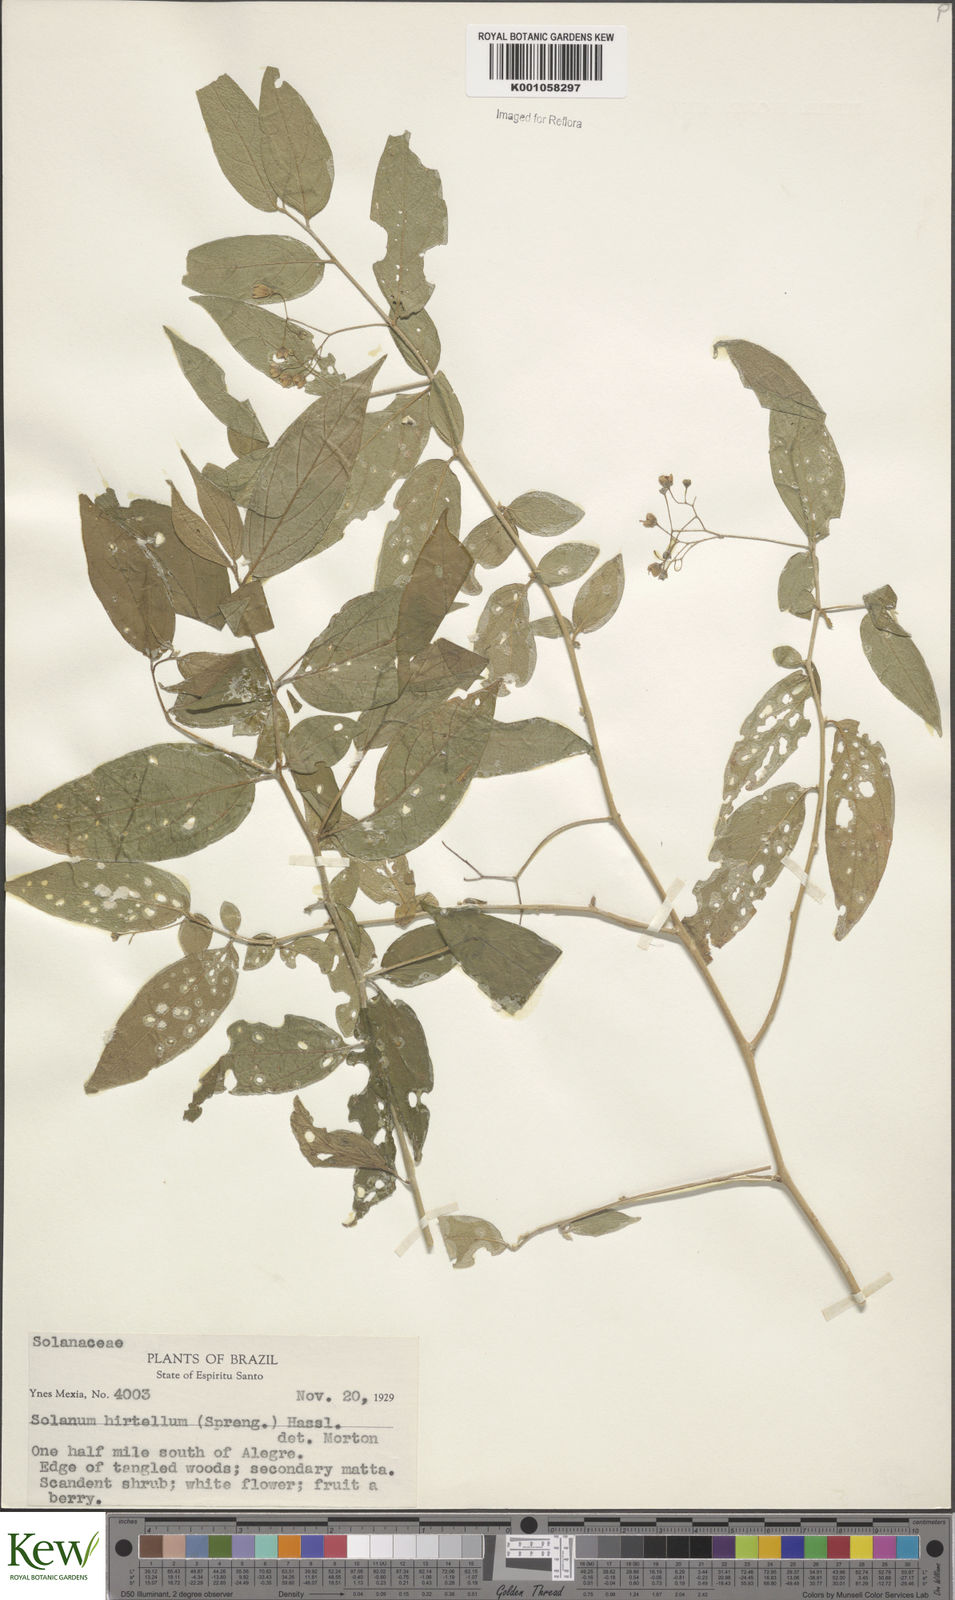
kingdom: Plantae
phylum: Tracheophyta
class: Magnoliopsida
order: Solanales
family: Solanaceae
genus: Solanum
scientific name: Solanum hirtellum
